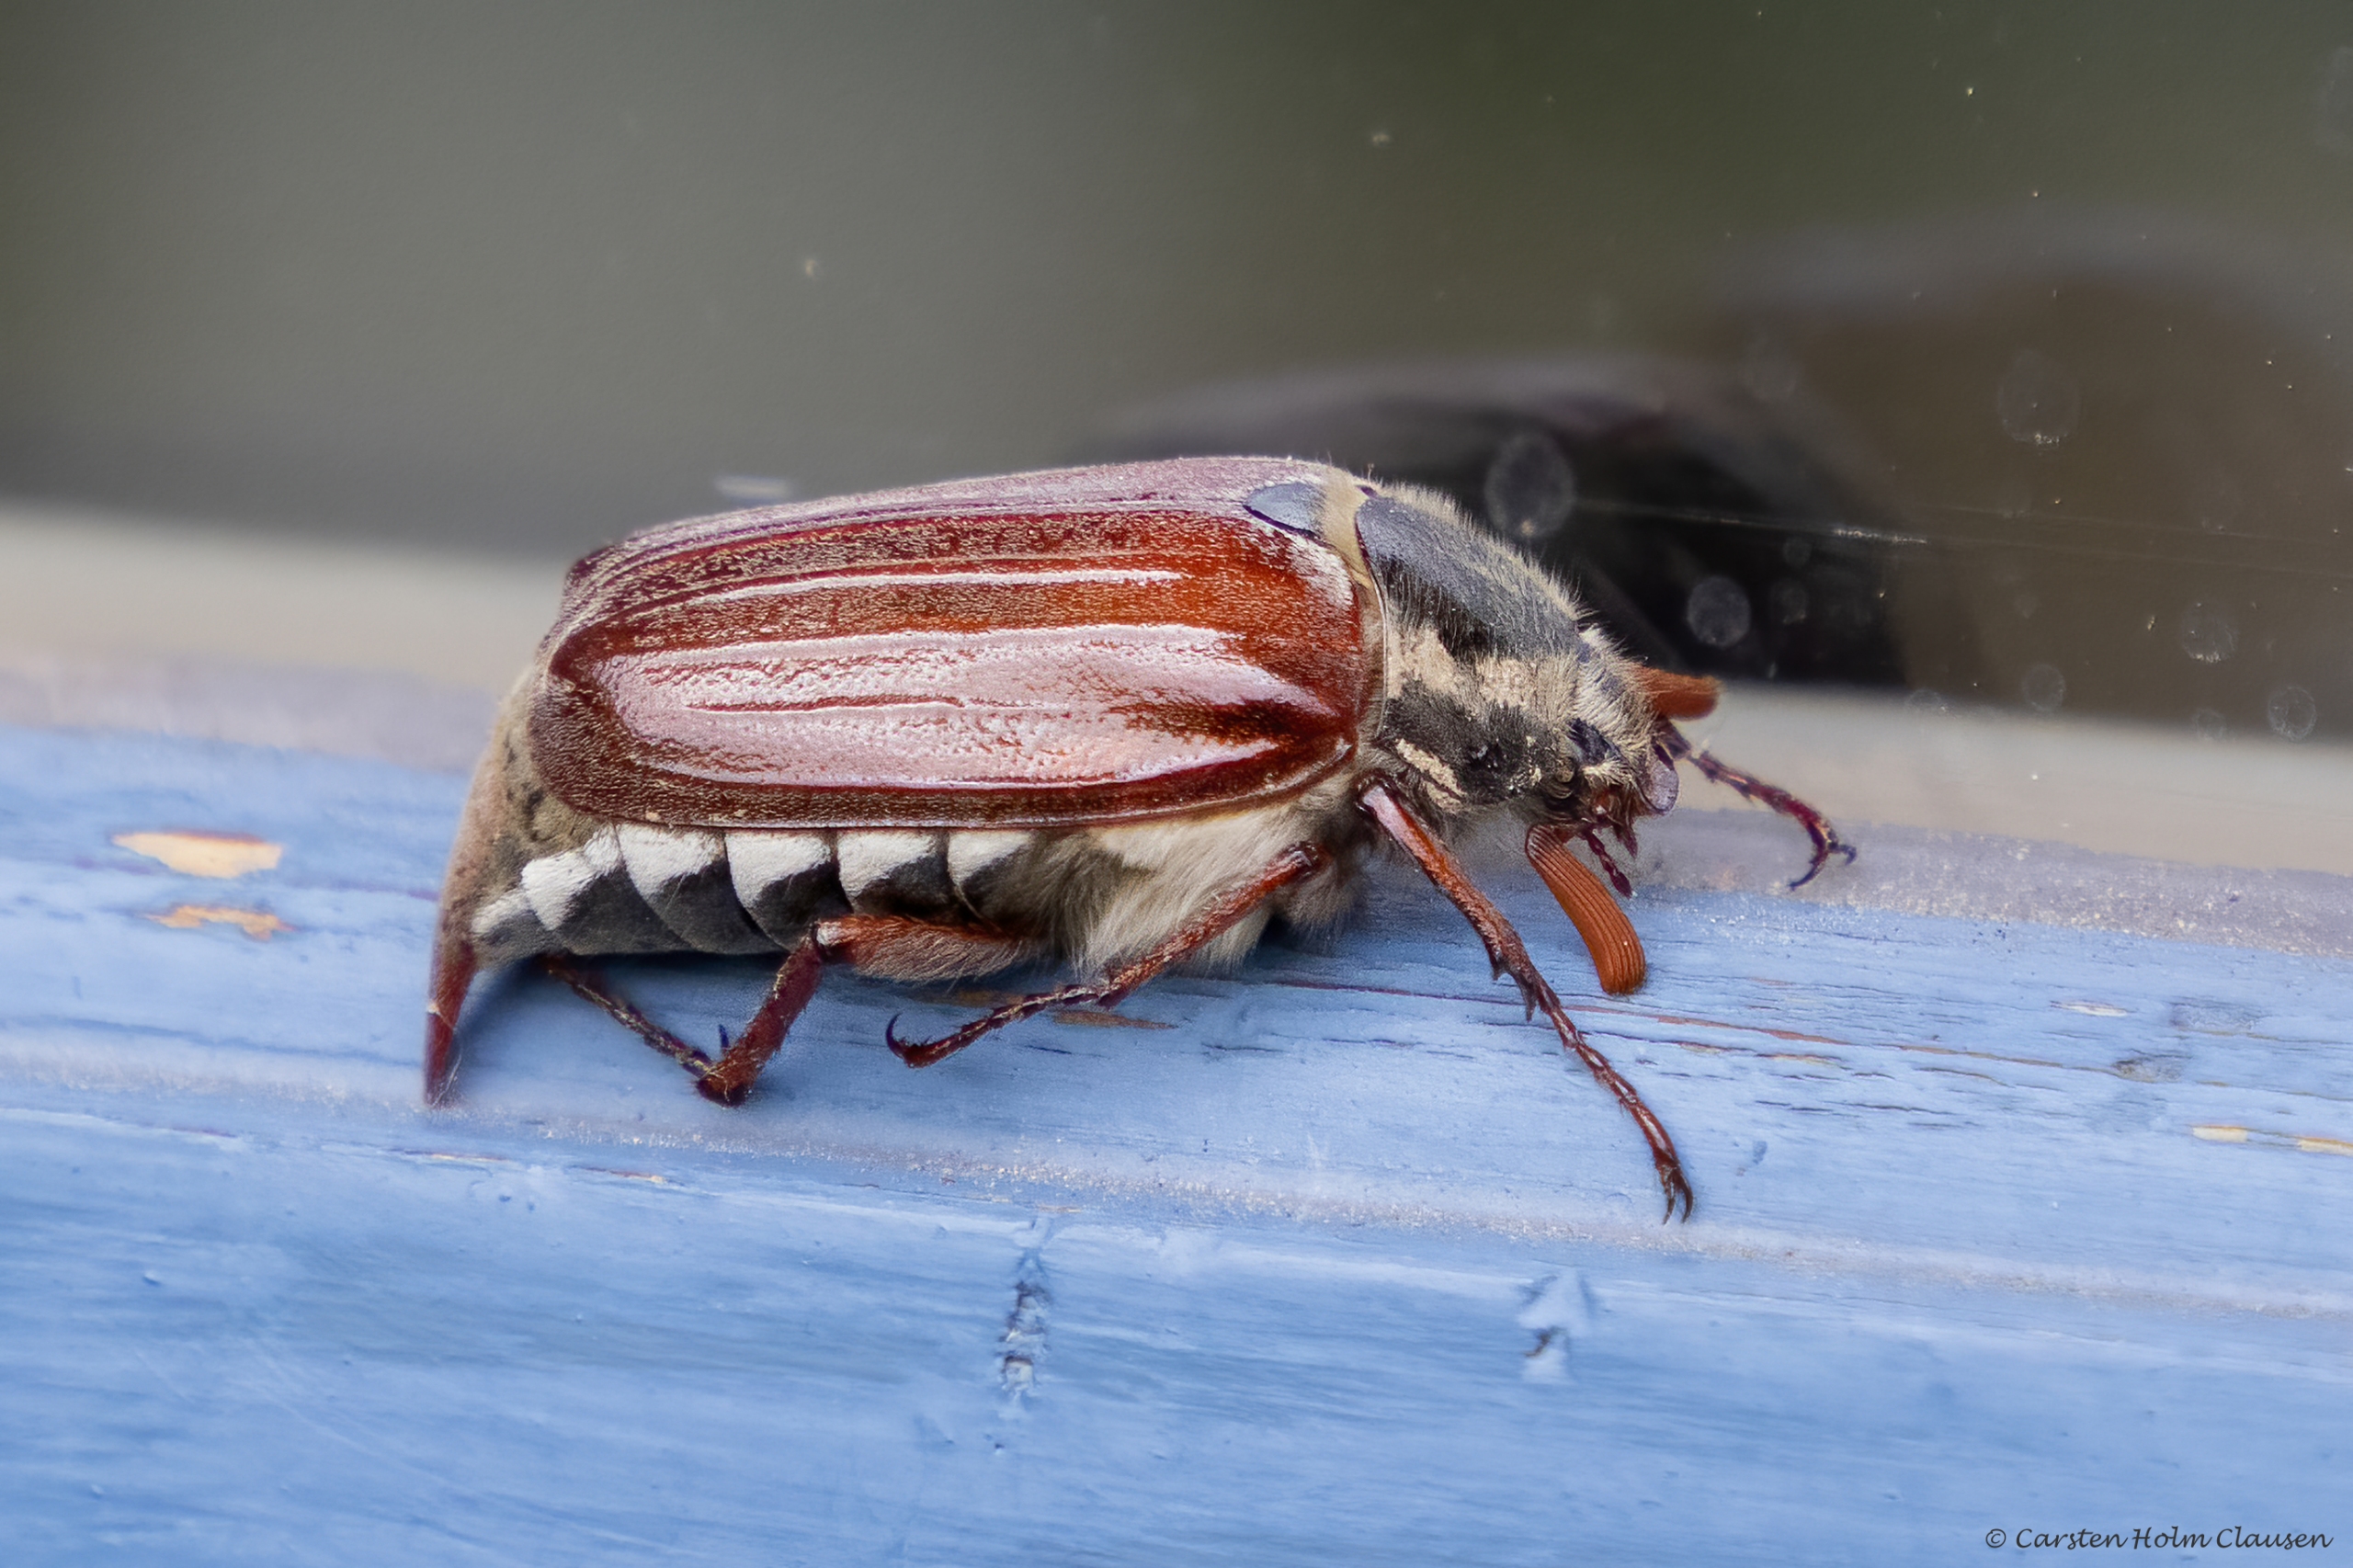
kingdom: Animalia
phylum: Arthropoda
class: Insecta
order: Coleoptera
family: Scarabaeidae
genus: Melolontha
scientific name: Melolontha melolontha
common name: Almindelig oldenborre
